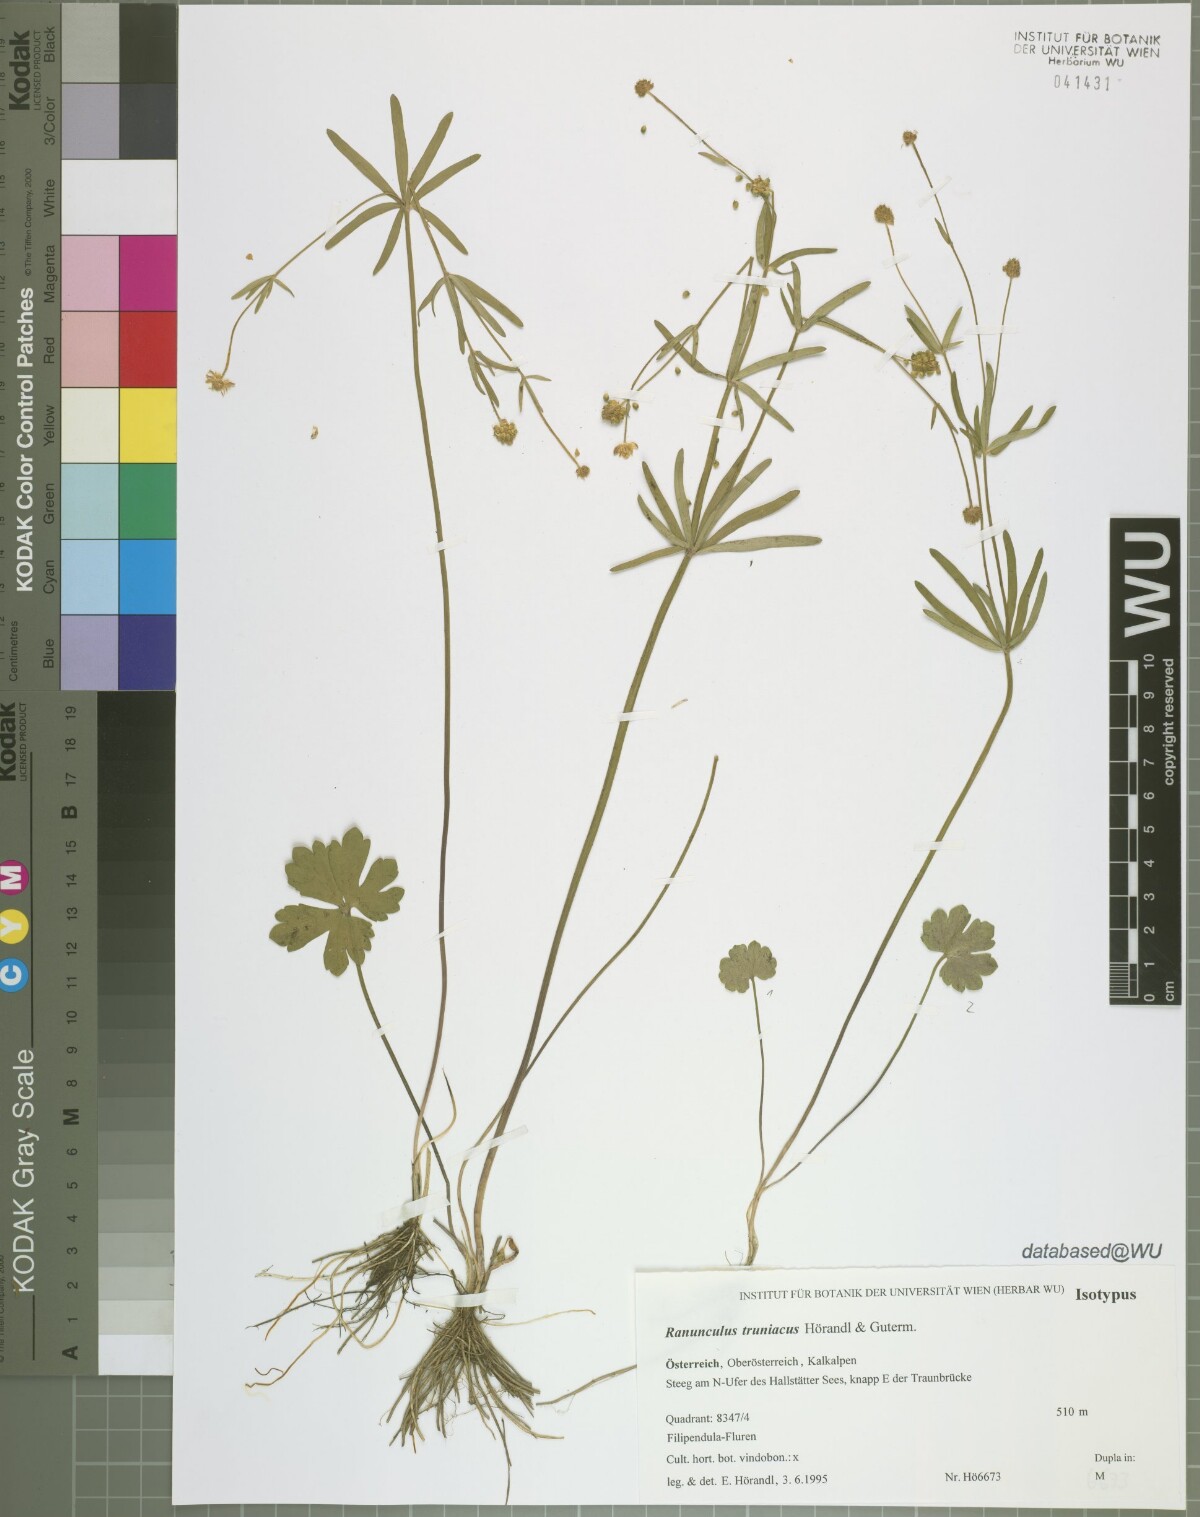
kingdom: Plantae
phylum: Tracheophyta
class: Magnoliopsida
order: Ranunculales
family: Ranunculaceae
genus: Ranunculus
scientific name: Ranunculus truniacus
